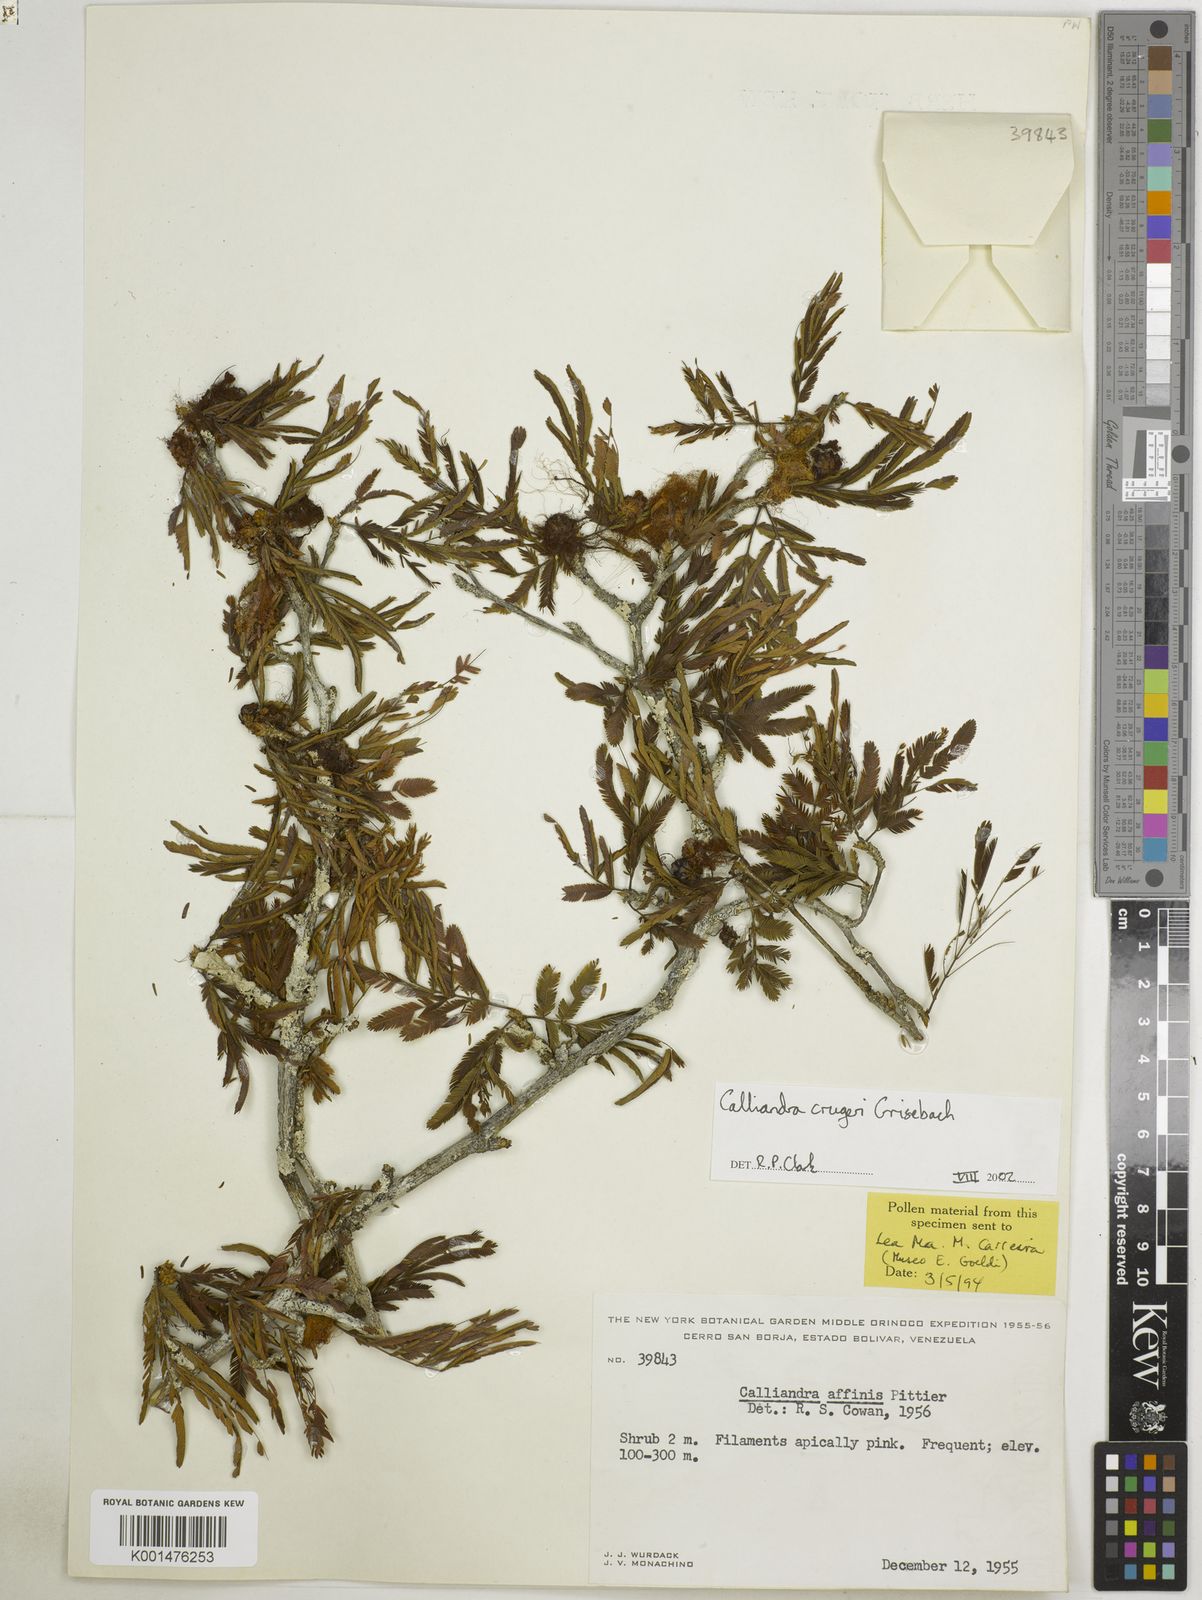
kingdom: Plantae
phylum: Tracheophyta
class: Magnoliopsida
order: Fabales
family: Fabaceae
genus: Calliandra
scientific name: Calliandra cruegeri
